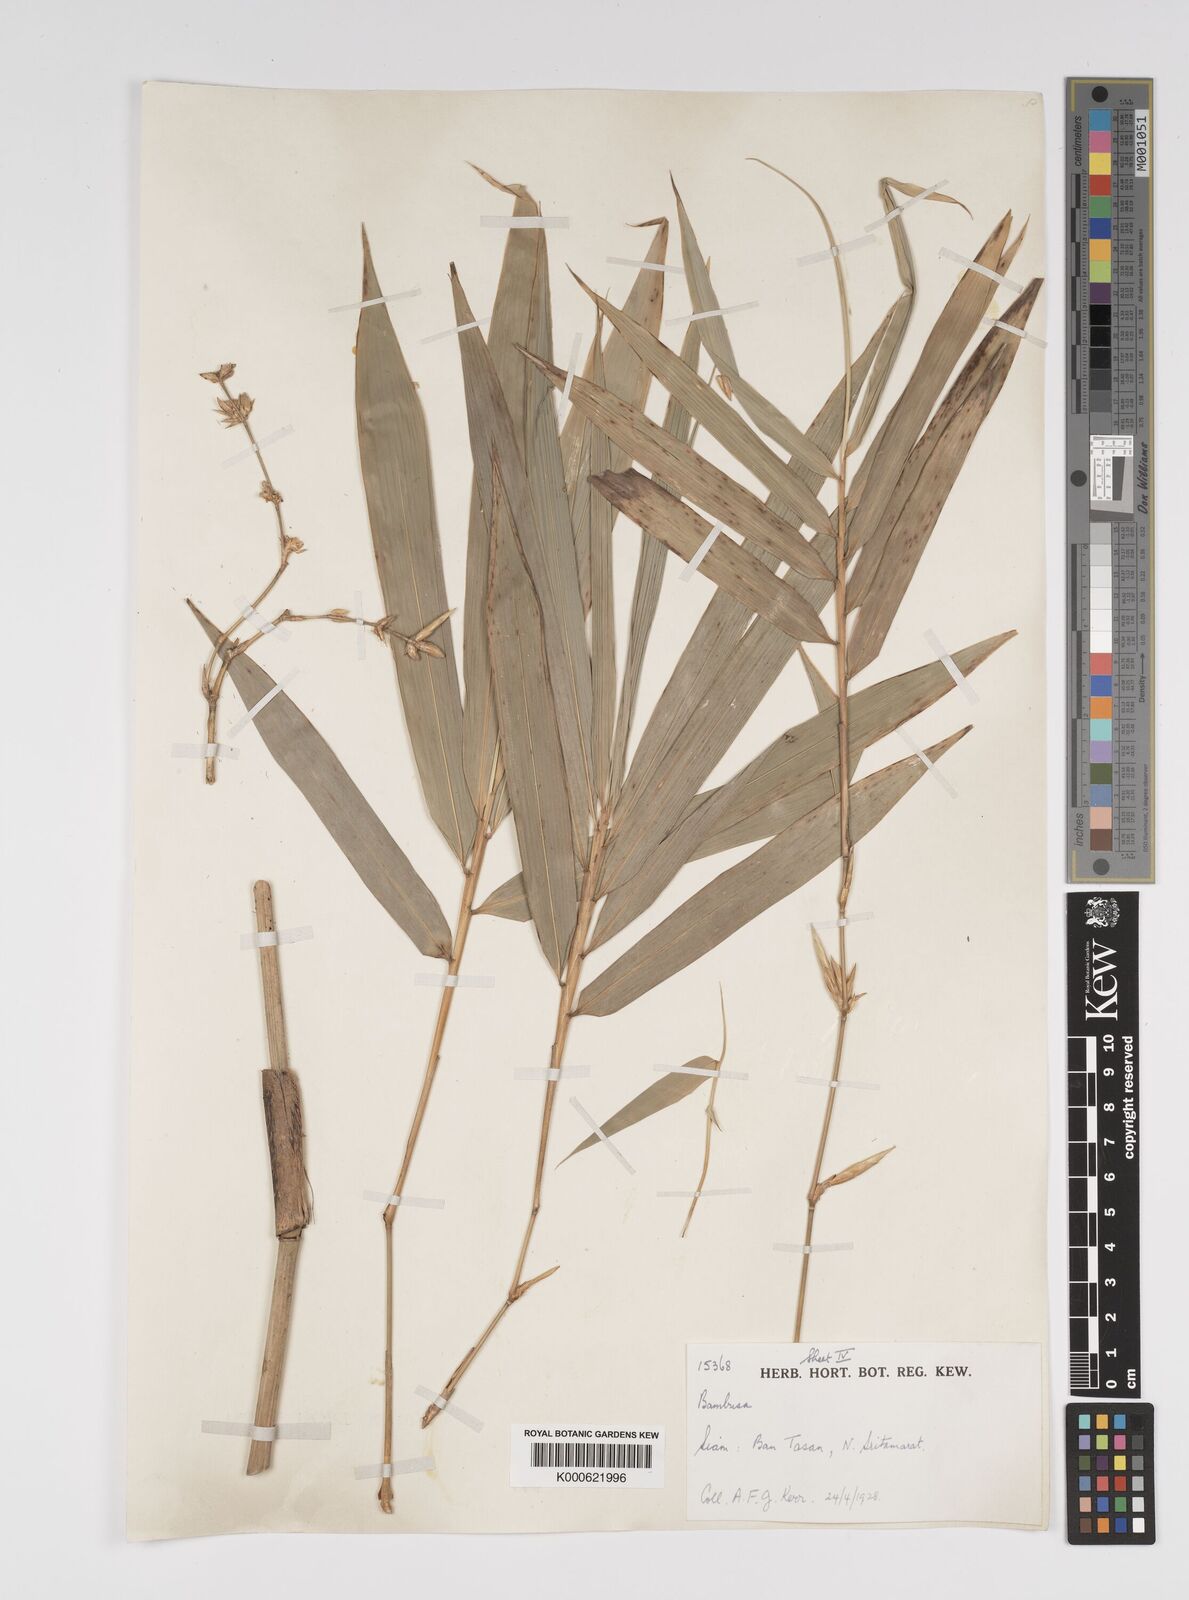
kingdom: Plantae
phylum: Tracheophyta
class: Liliopsida
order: Poales
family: Poaceae
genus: Bambusa
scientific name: Bambusa
